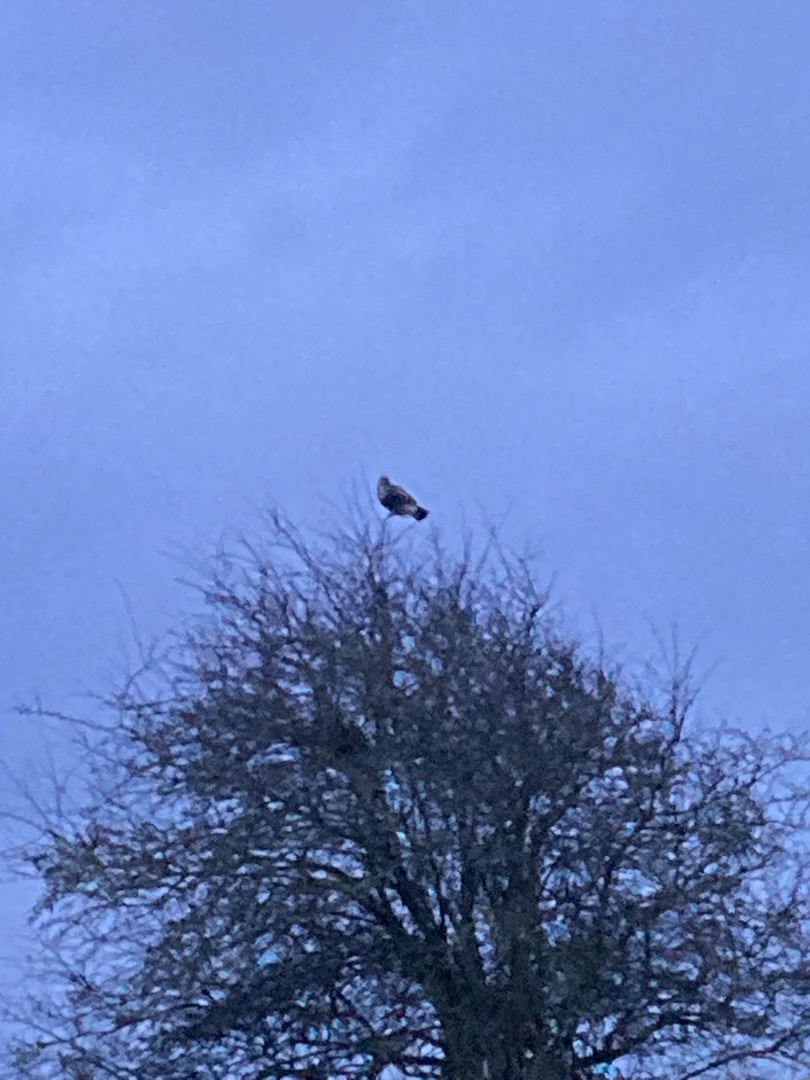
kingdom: Animalia
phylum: Chordata
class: Aves
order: Accipitriformes
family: Accipitridae
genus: Buteo
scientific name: Buteo lagopus
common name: Fjeldvåge
